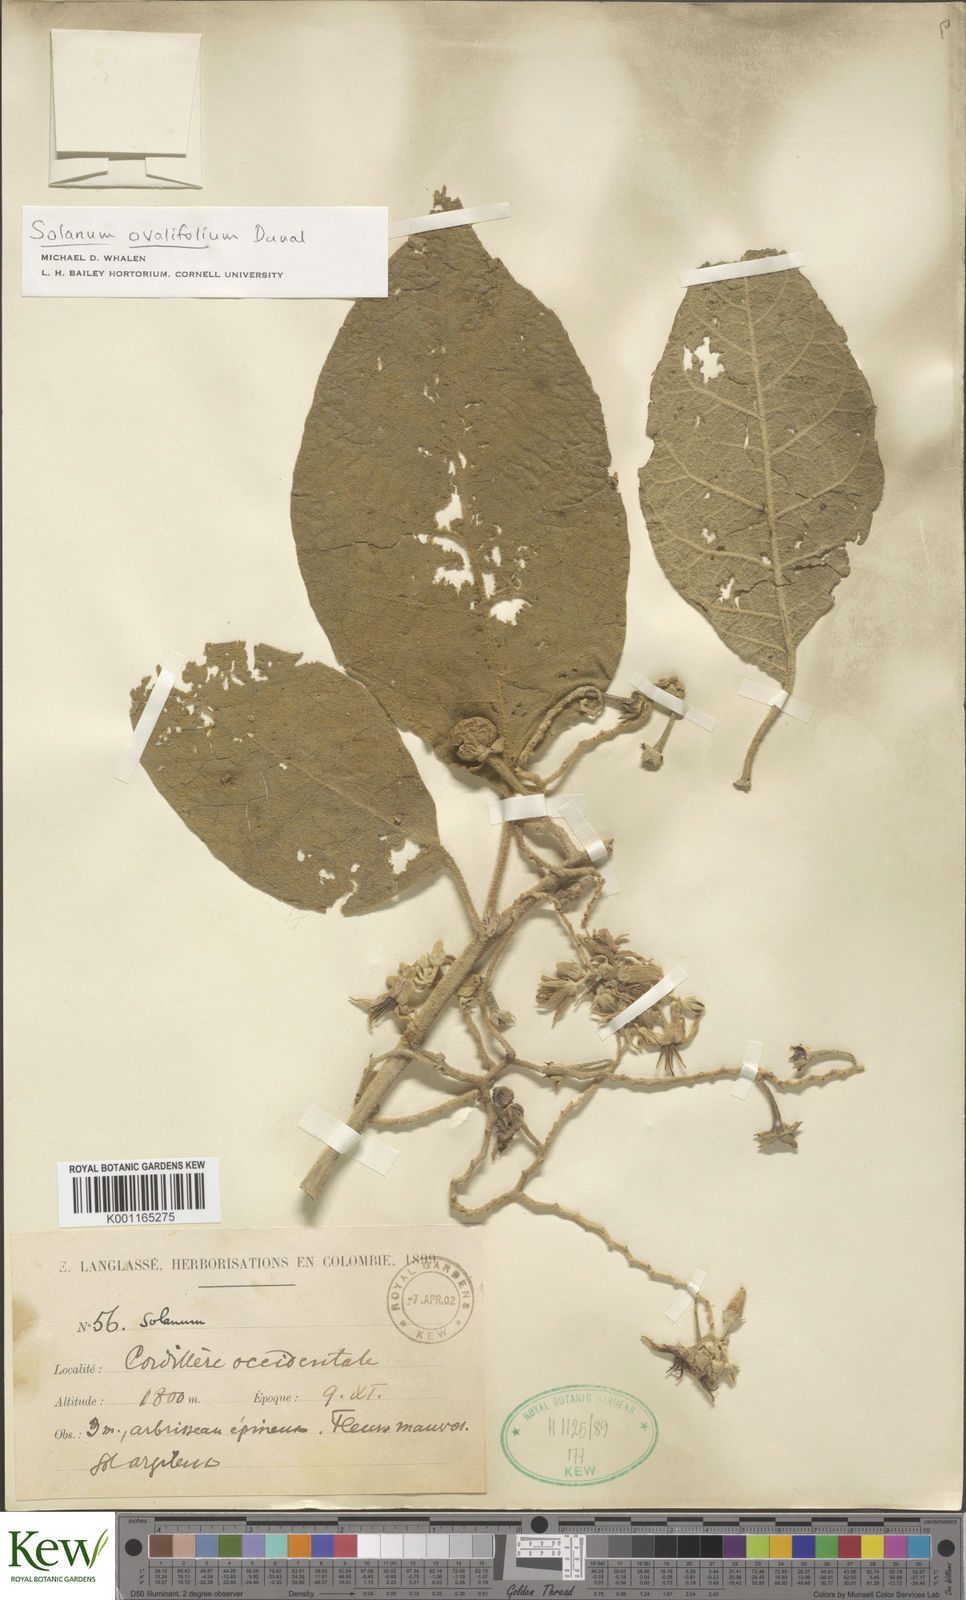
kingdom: Plantae
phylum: Tracheophyta
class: Magnoliopsida
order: Solanales
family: Solanaceae
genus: Solanum
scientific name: Solanum ovalifolium
